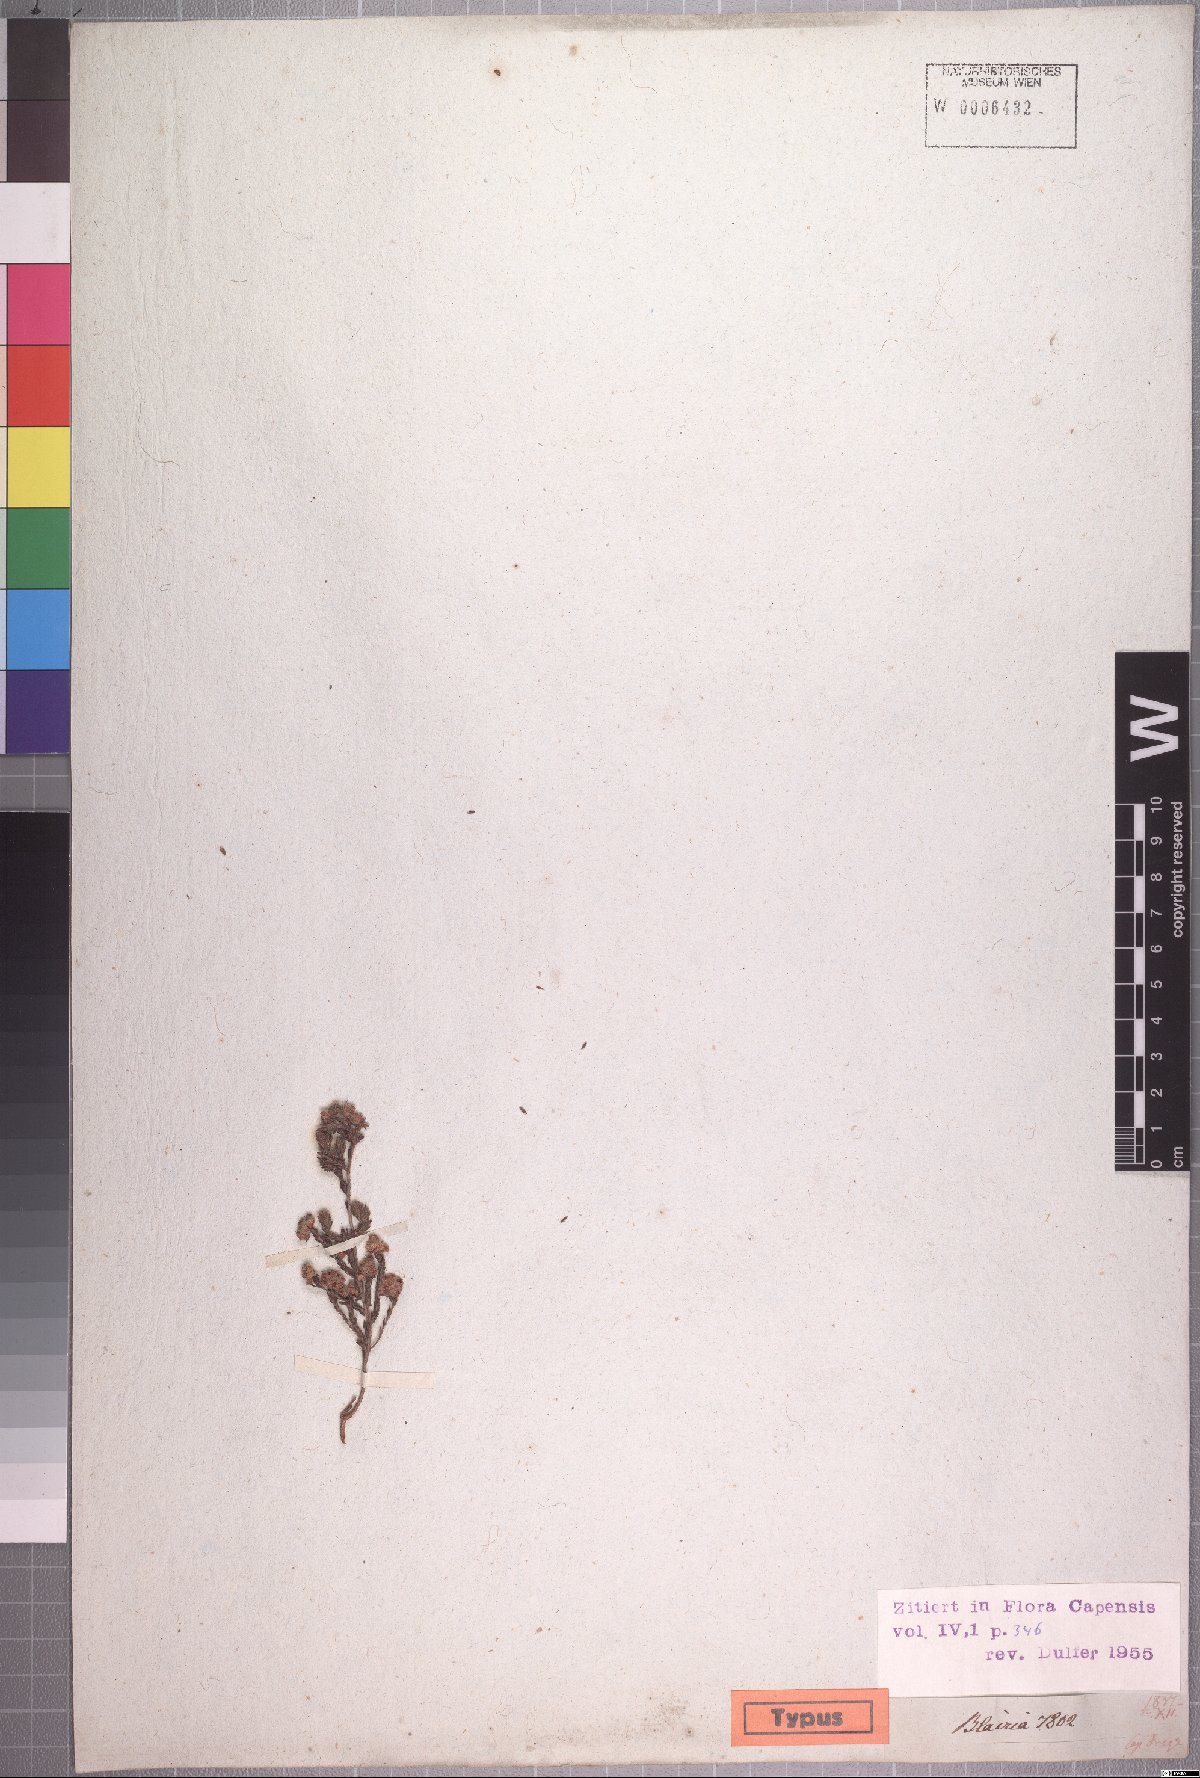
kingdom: Plantae
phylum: Tracheophyta
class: Magnoliopsida
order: Ericales
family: Ericaceae
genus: Erica
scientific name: Erica plumosa
